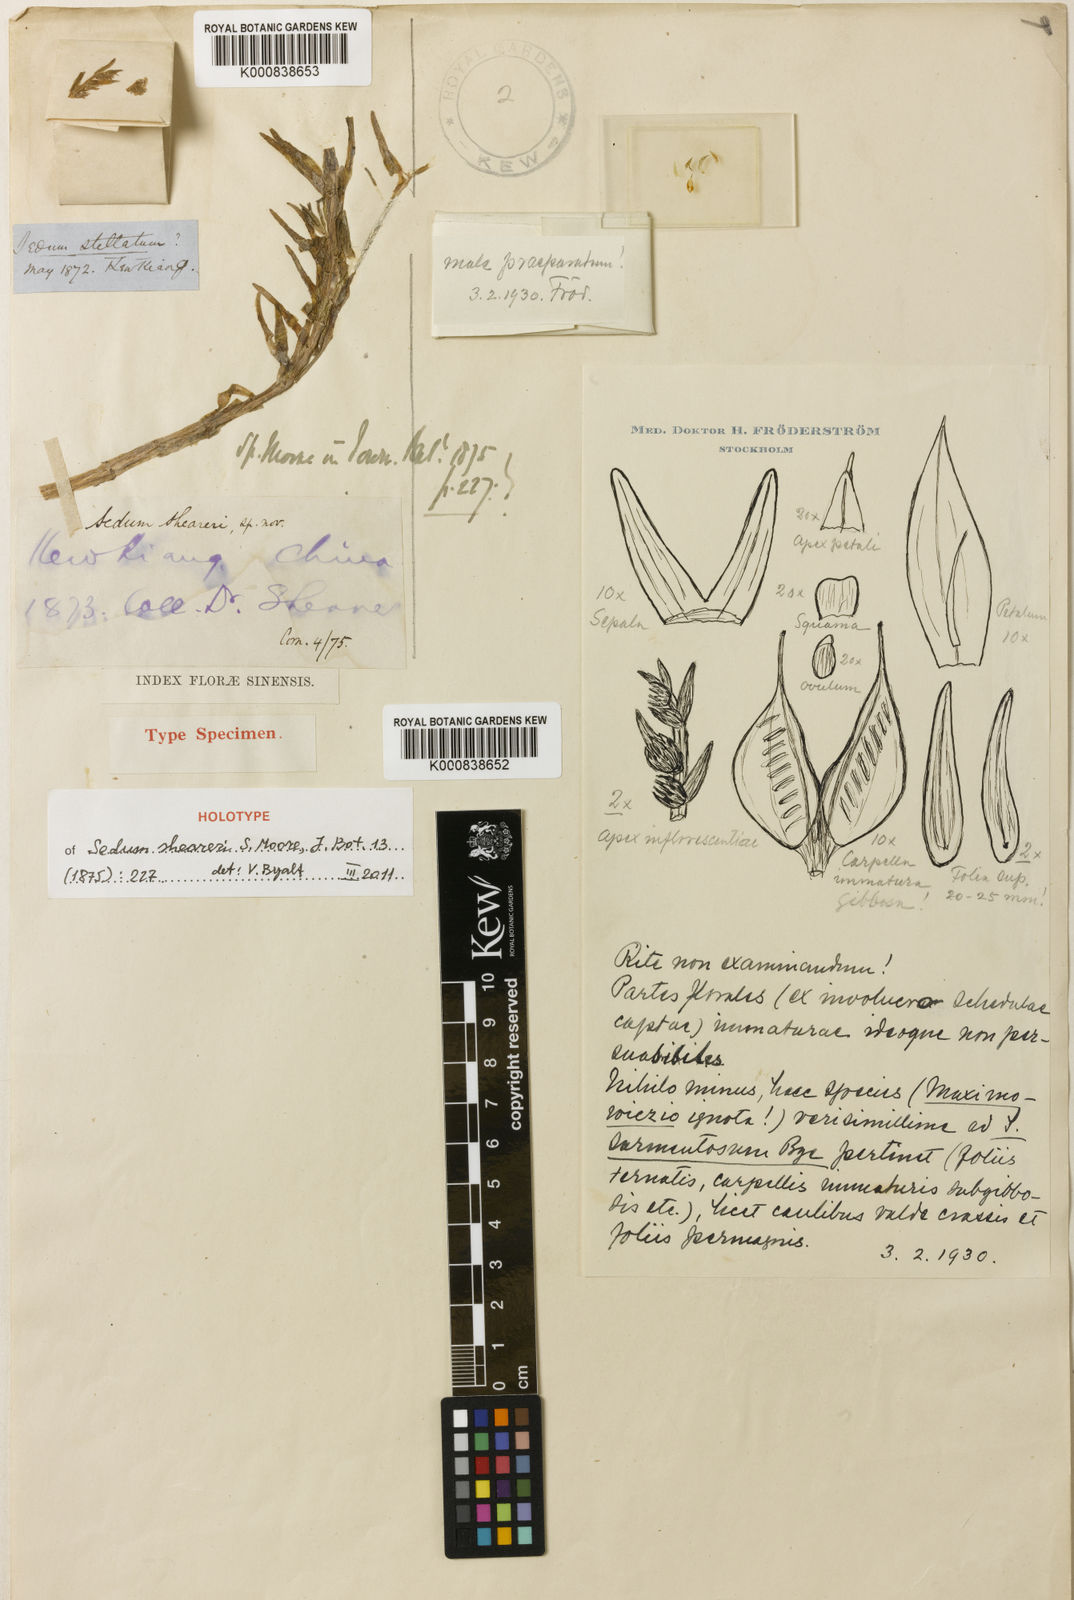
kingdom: Plantae
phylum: Tracheophyta
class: Magnoliopsida
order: Saxifragales
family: Crassulaceae
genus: Sedum
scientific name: Sedum sarmentosum
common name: Stringy stonecrop
